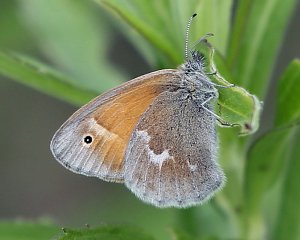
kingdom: Animalia
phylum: Arthropoda
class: Insecta
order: Lepidoptera
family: Nymphalidae
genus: Coenonympha
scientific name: Coenonympha tullia
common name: Large Heath
